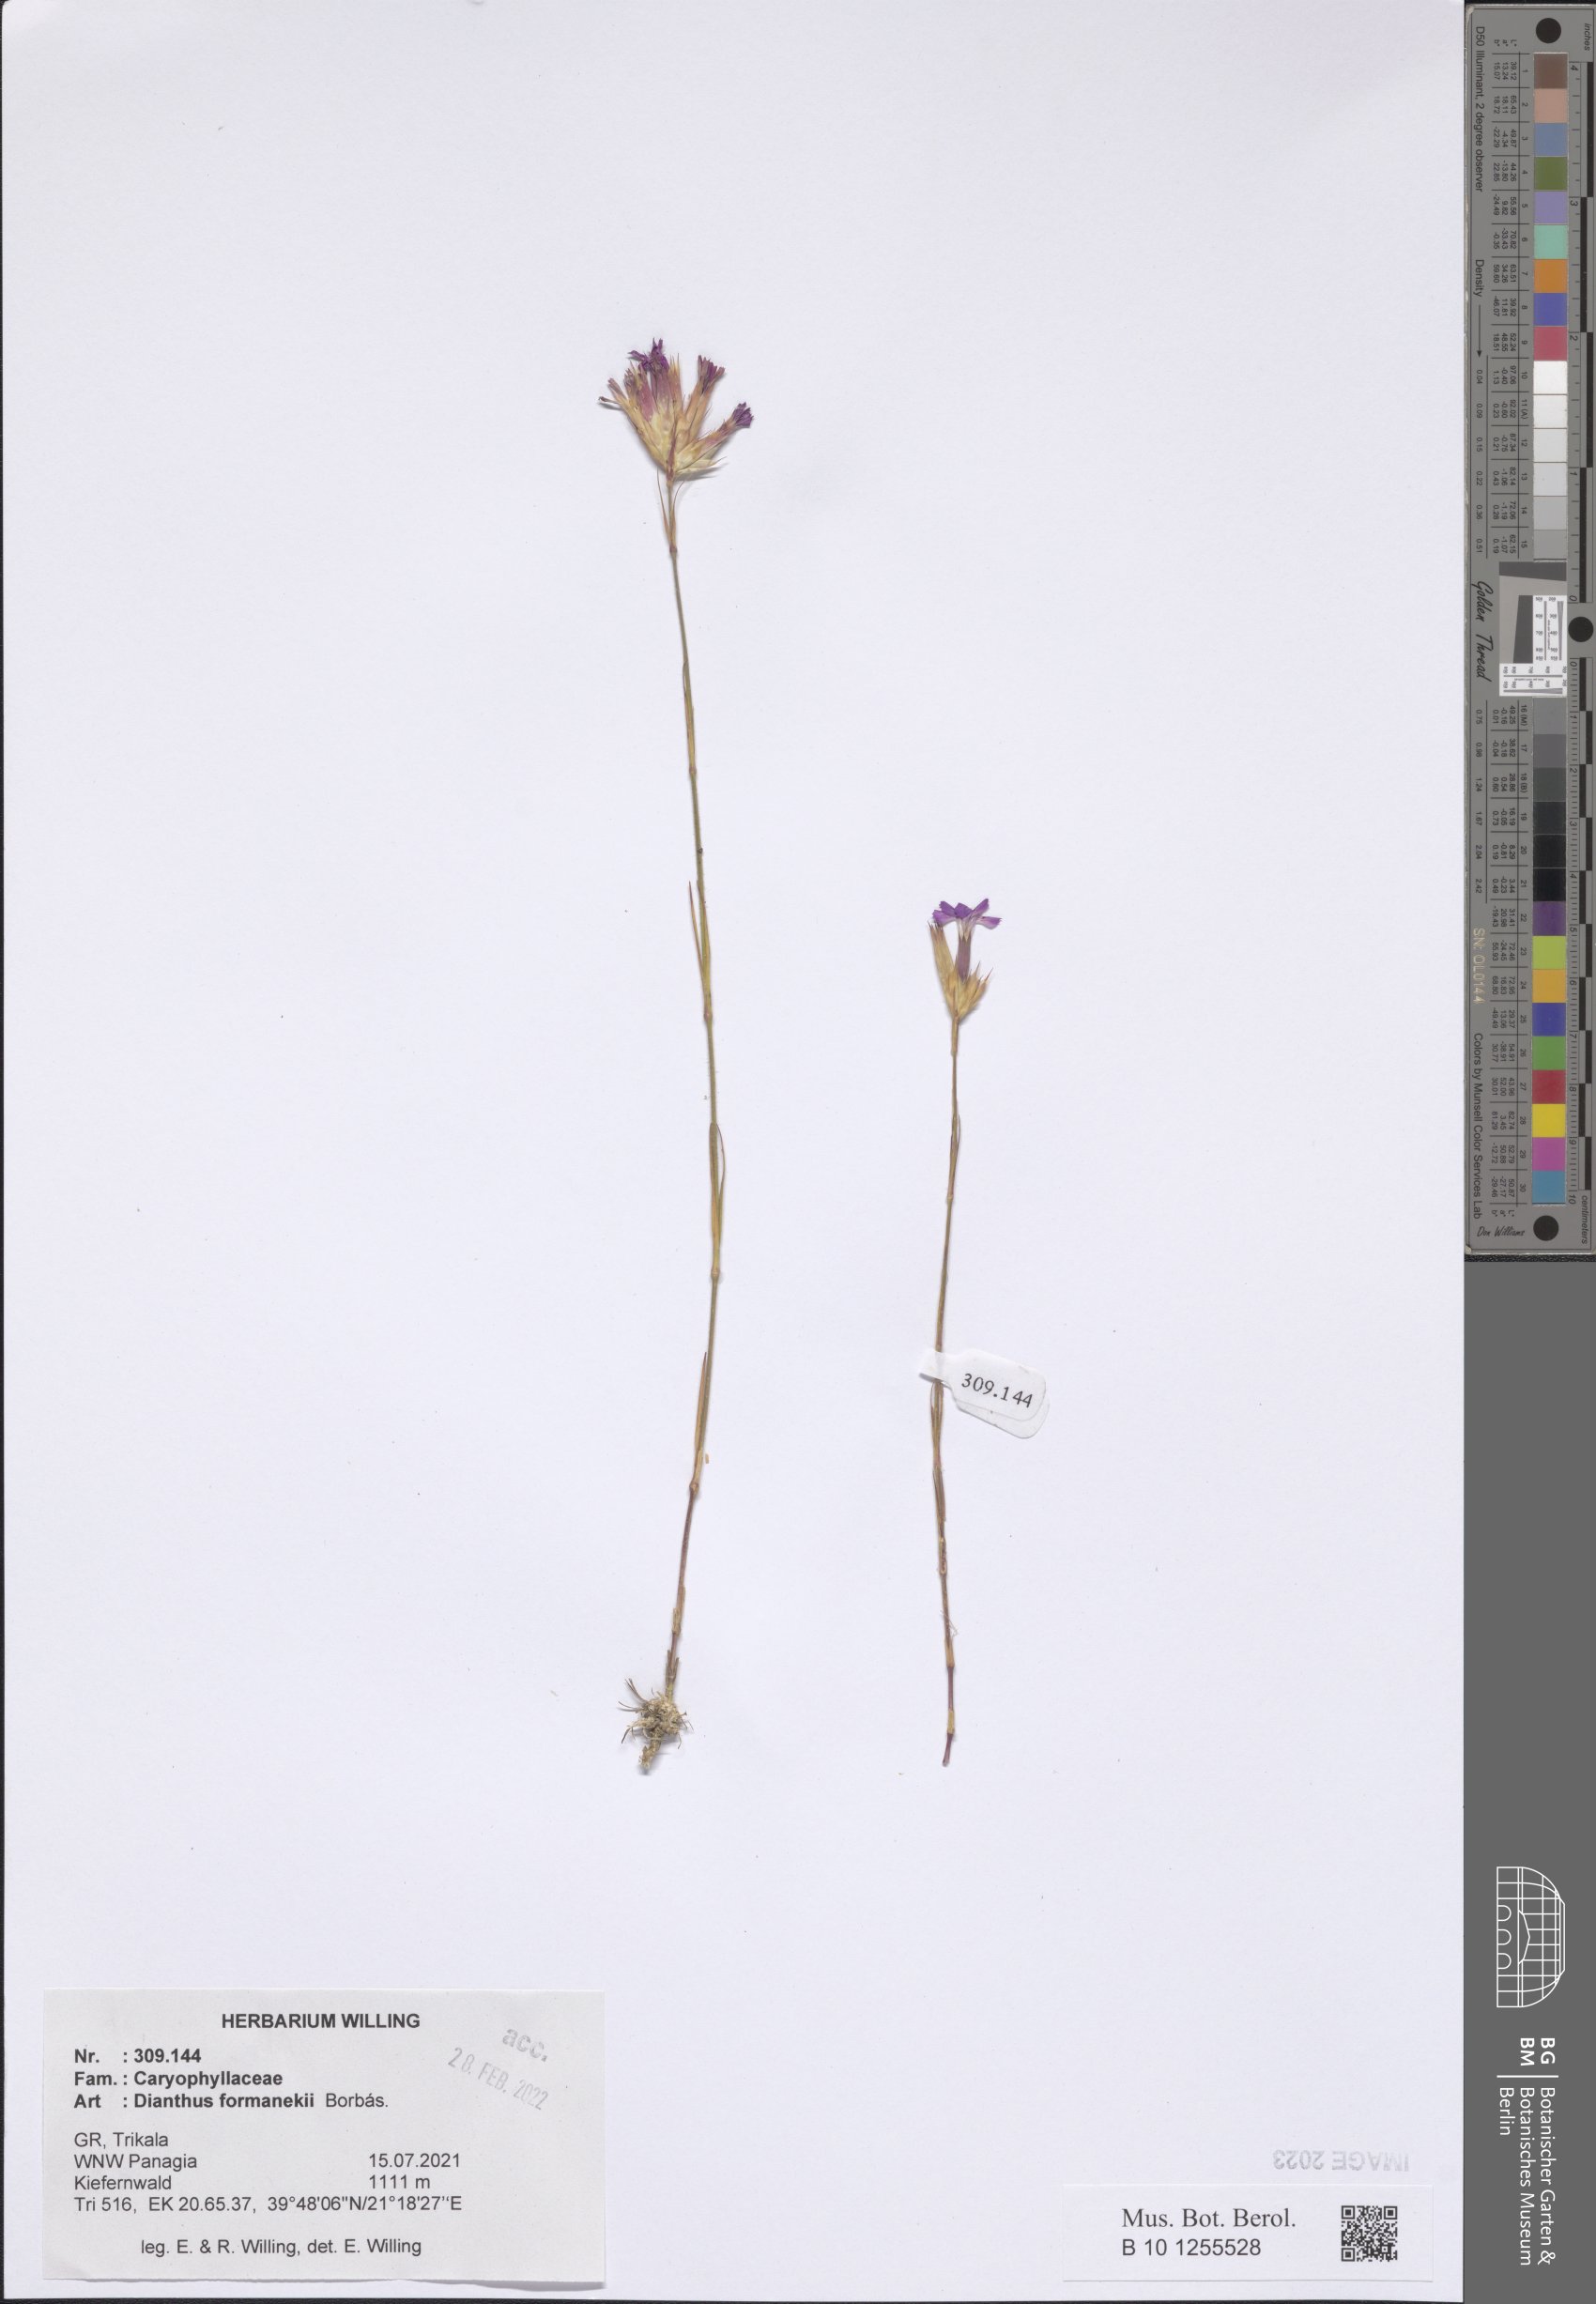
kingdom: Plantae
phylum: Tracheophyta
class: Magnoliopsida
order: Caryophyllales
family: Caryophyllaceae
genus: Dianthus
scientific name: Dianthus formanekii
